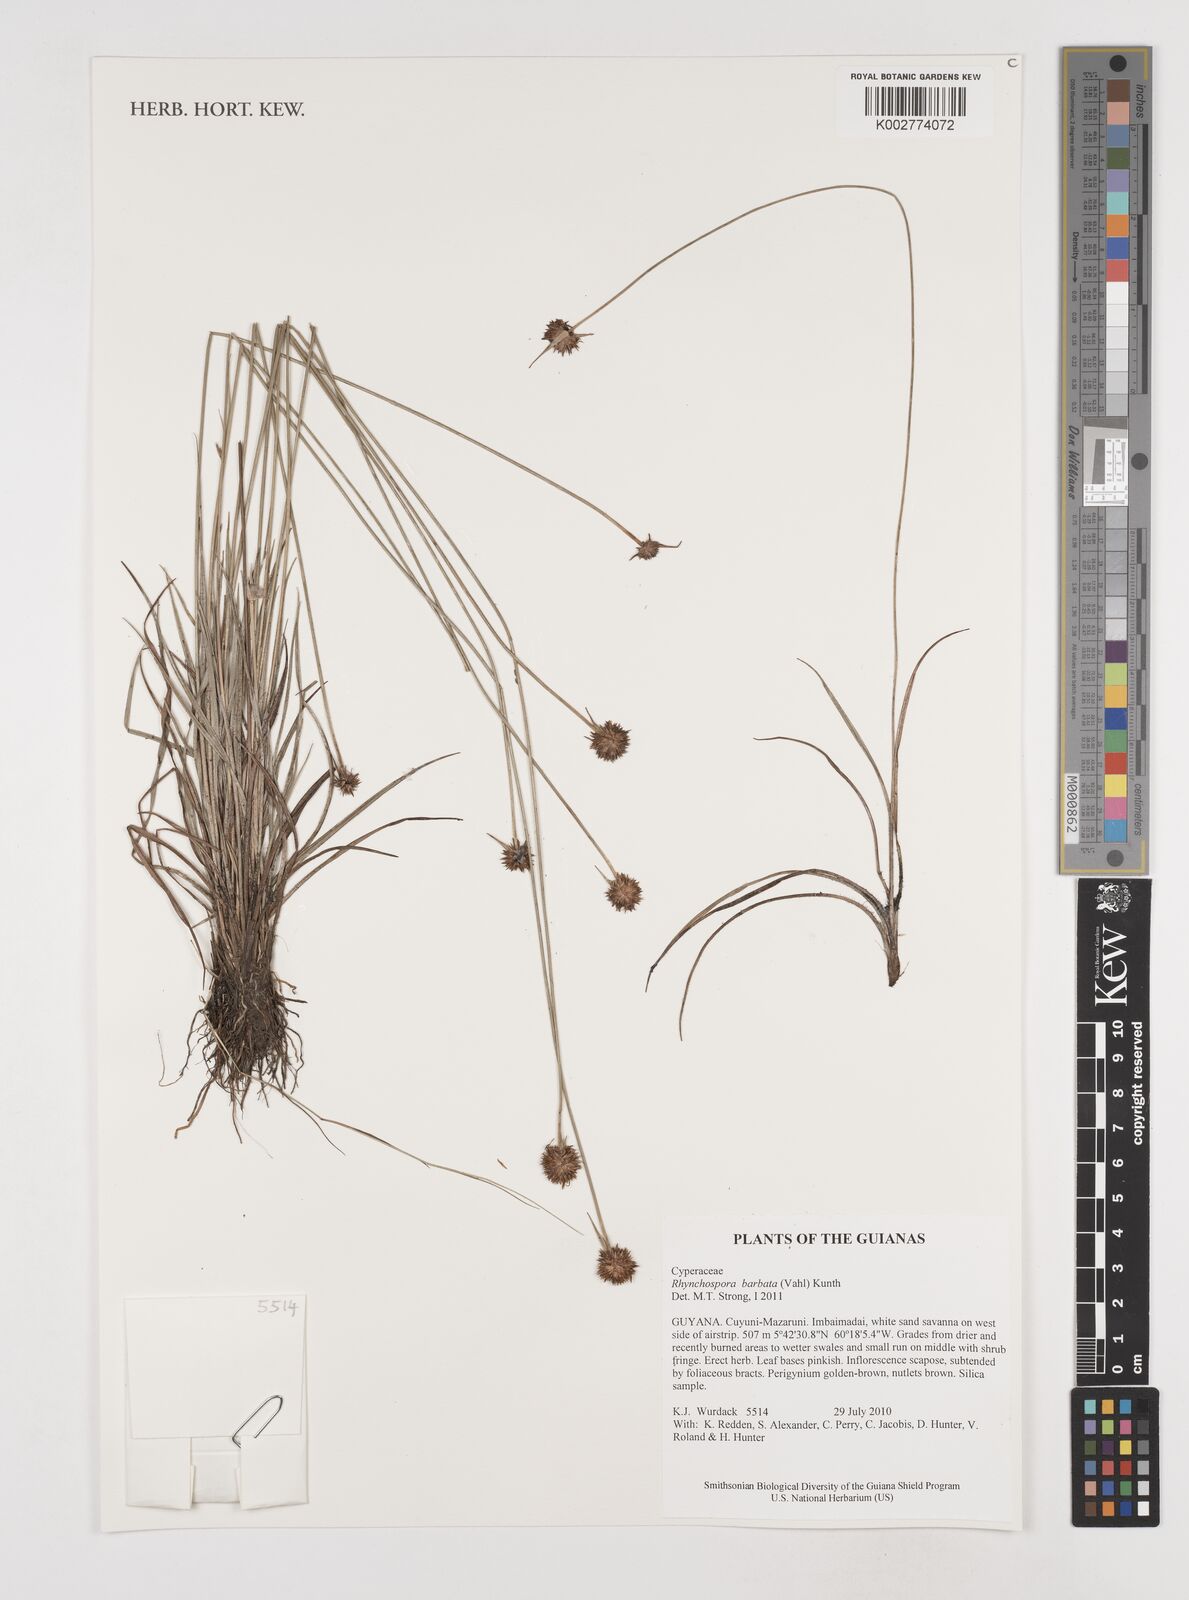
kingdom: Plantae
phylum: Tracheophyta
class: Liliopsida
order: Poales
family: Cyperaceae
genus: Rhynchospora
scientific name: Rhynchospora barbata
